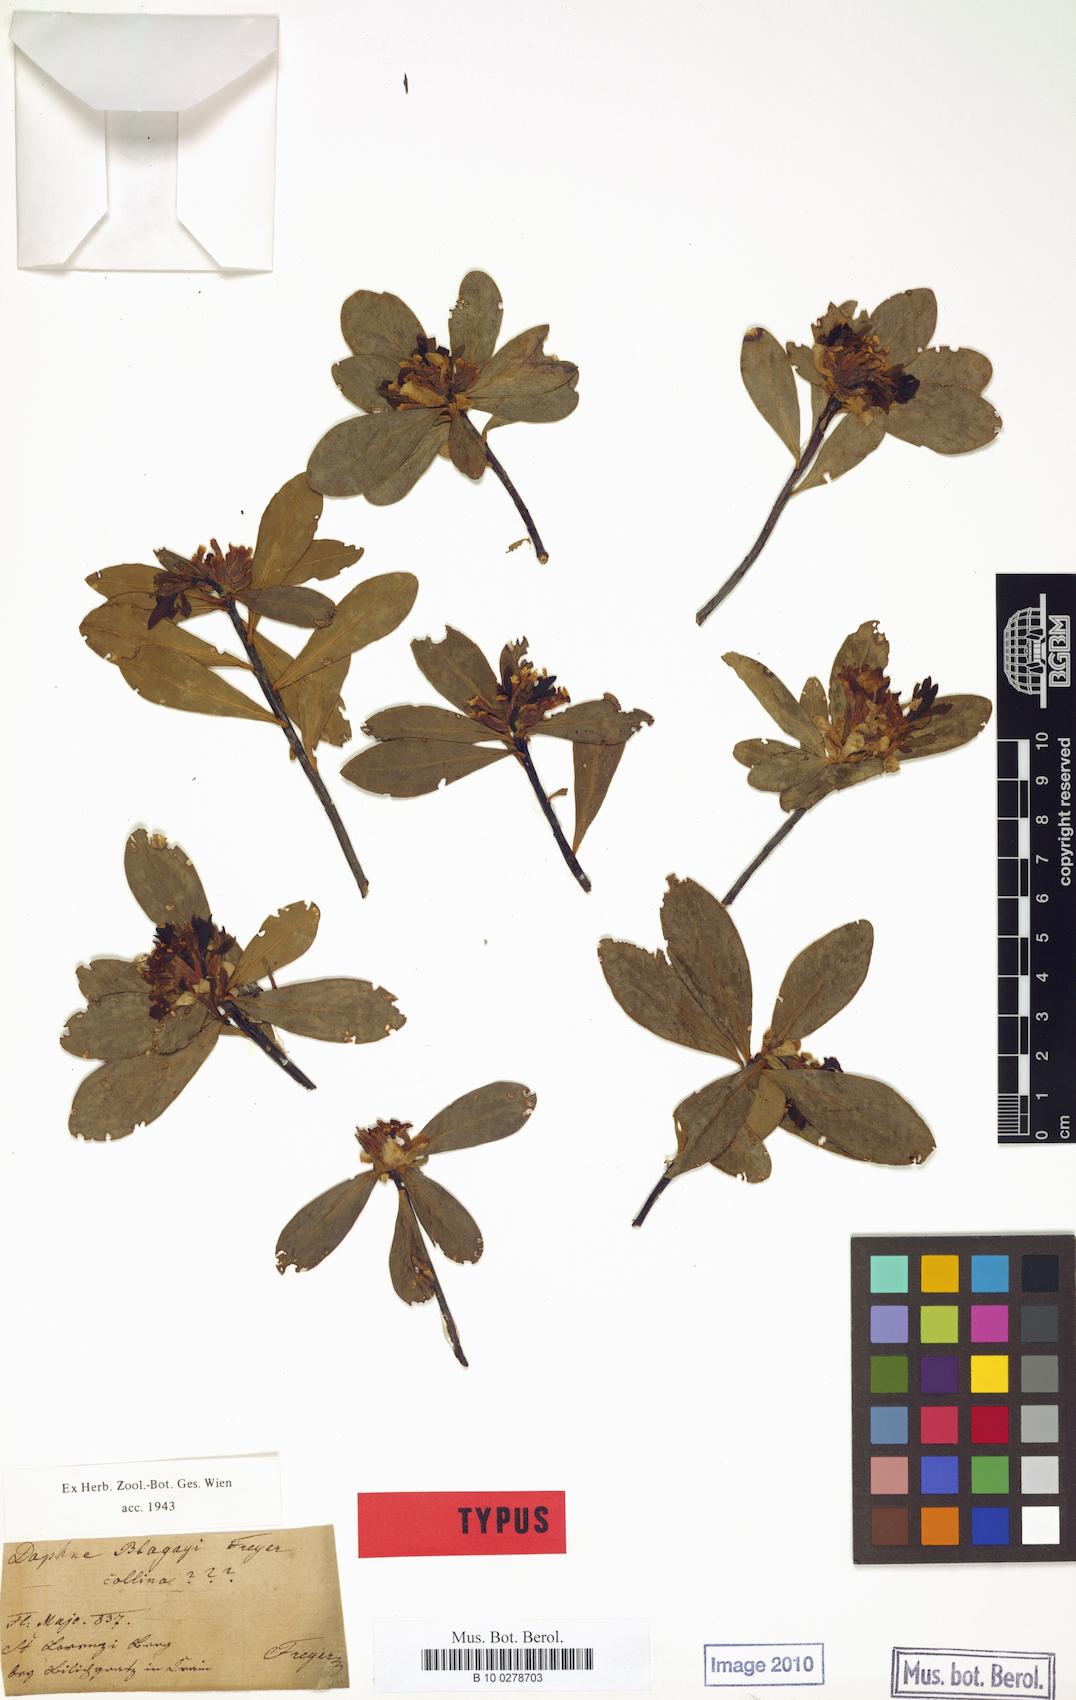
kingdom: Plantae
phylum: Tracheophyta
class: Magnoliopsida
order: Malvales
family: Thymelaeaceae
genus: Daphne
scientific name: Daphne blagayana
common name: Balkan daphne
